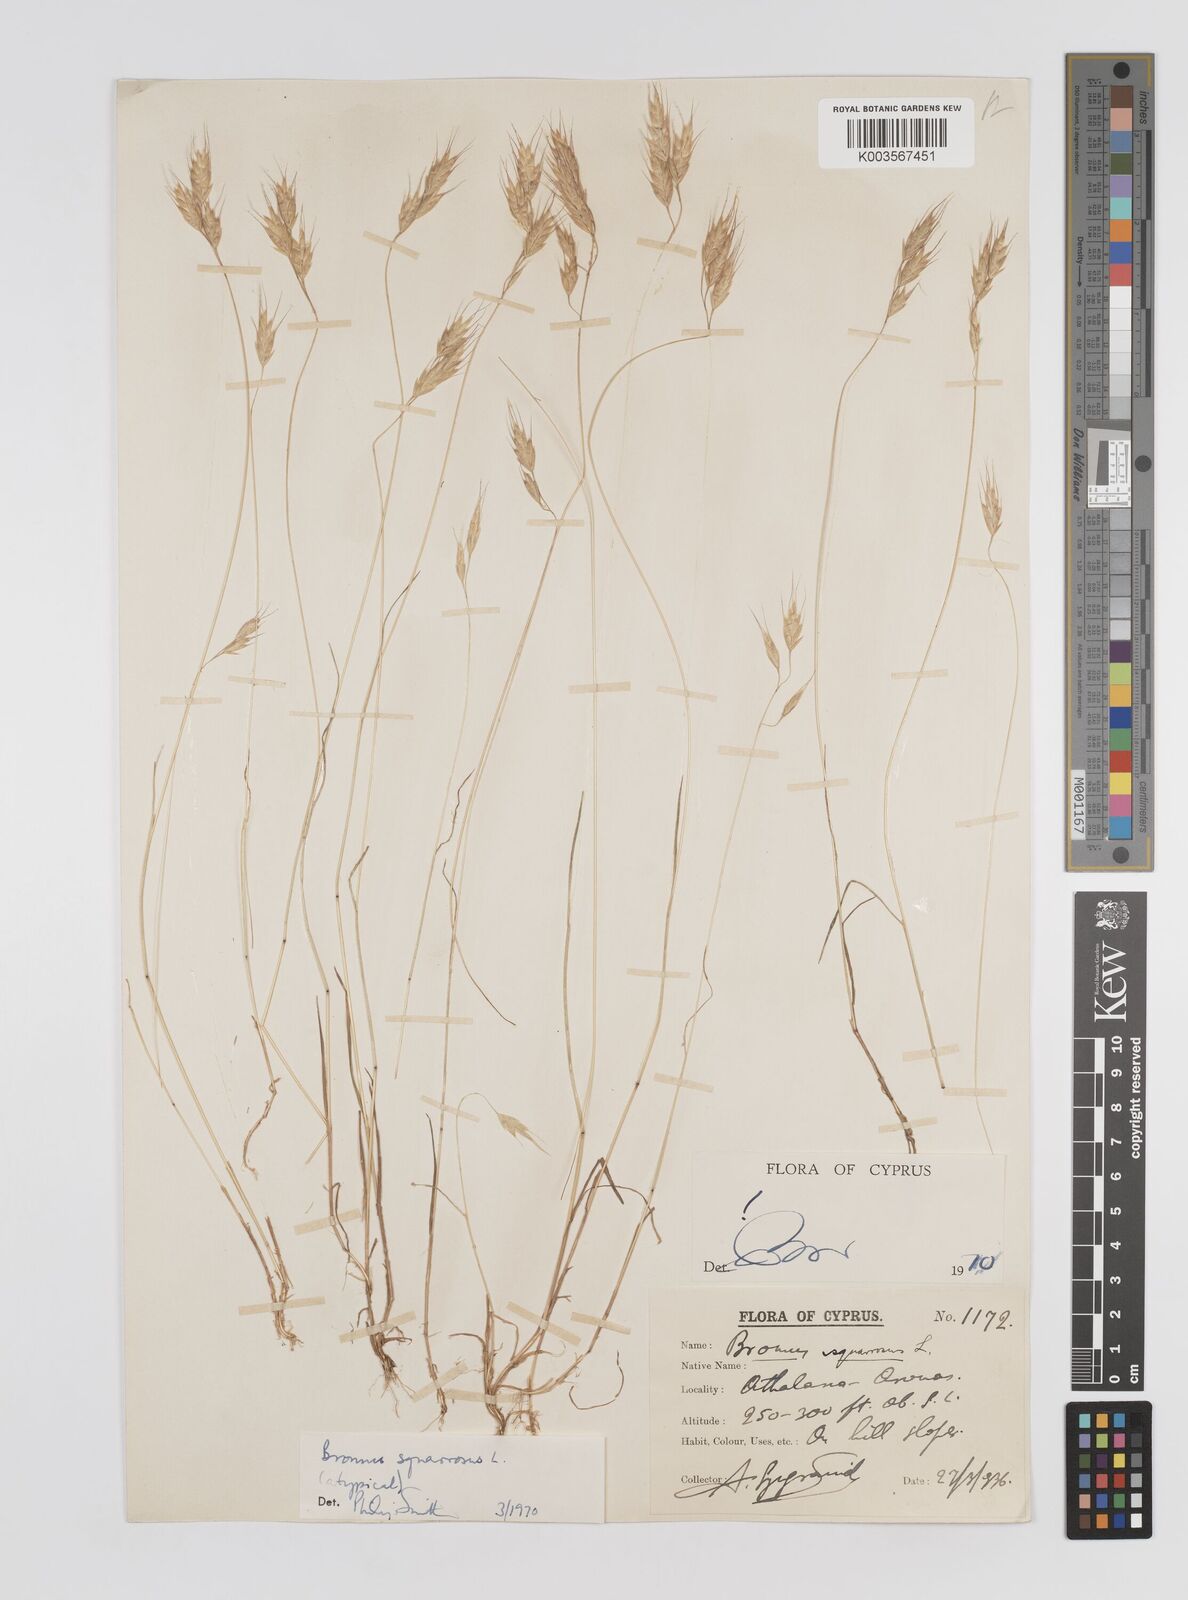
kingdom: Plantae
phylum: Tracheophyta
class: Liliopsida
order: Poales
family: Poaceae
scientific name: Poaceae
